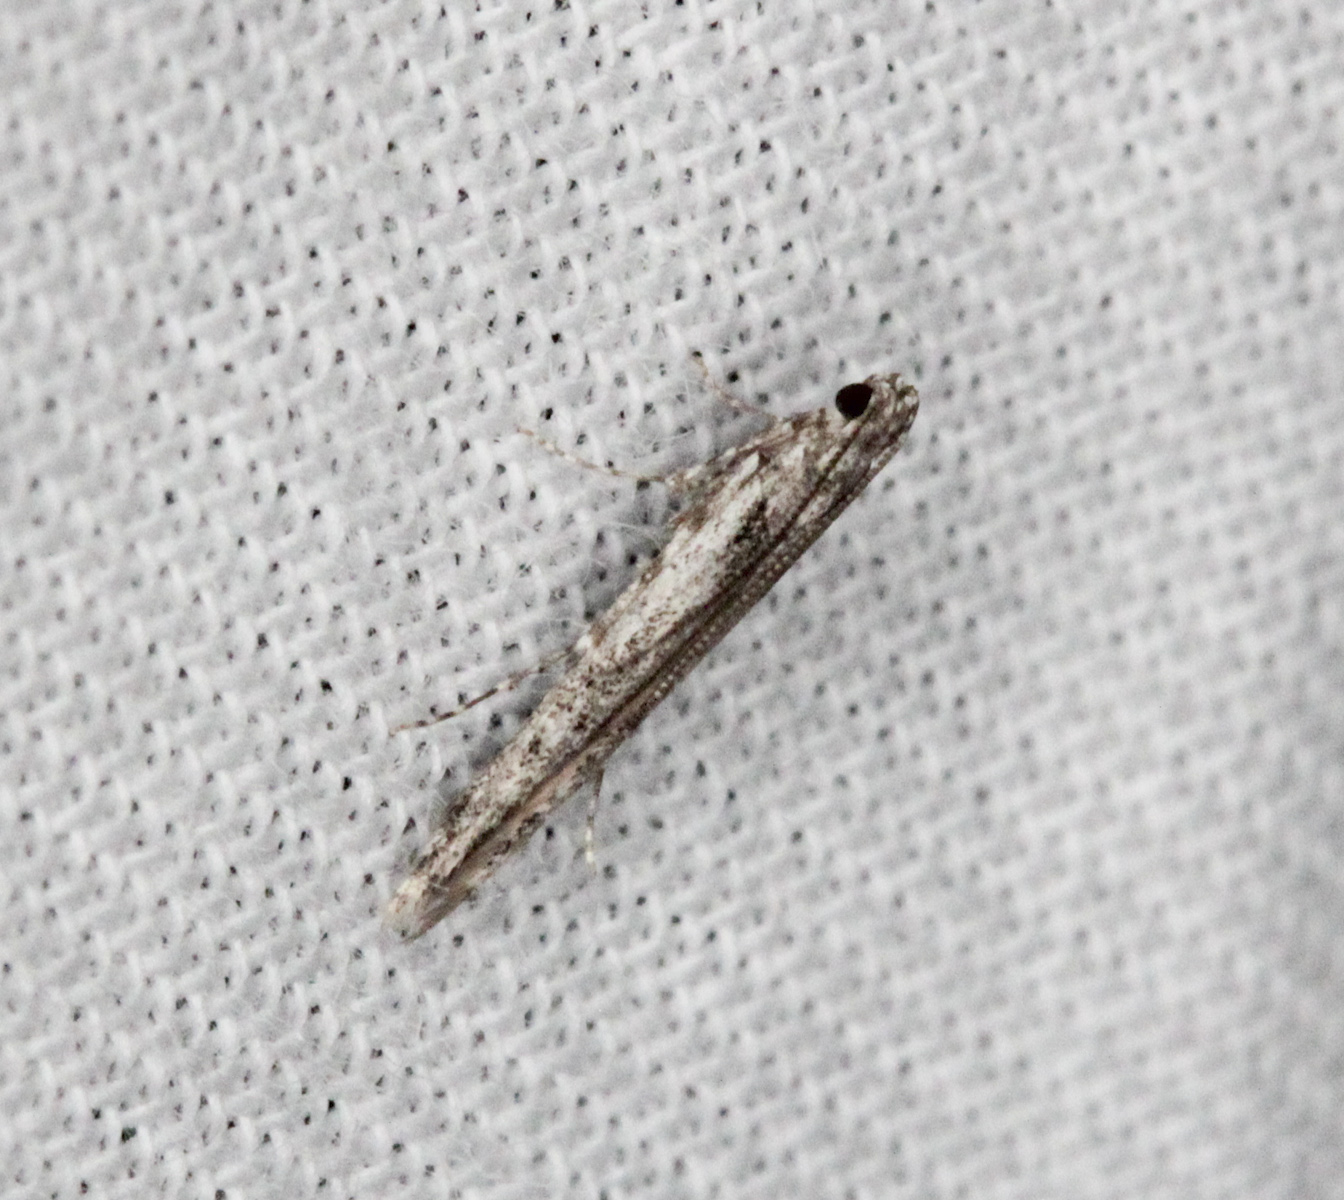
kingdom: Animalia
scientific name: Animalia
